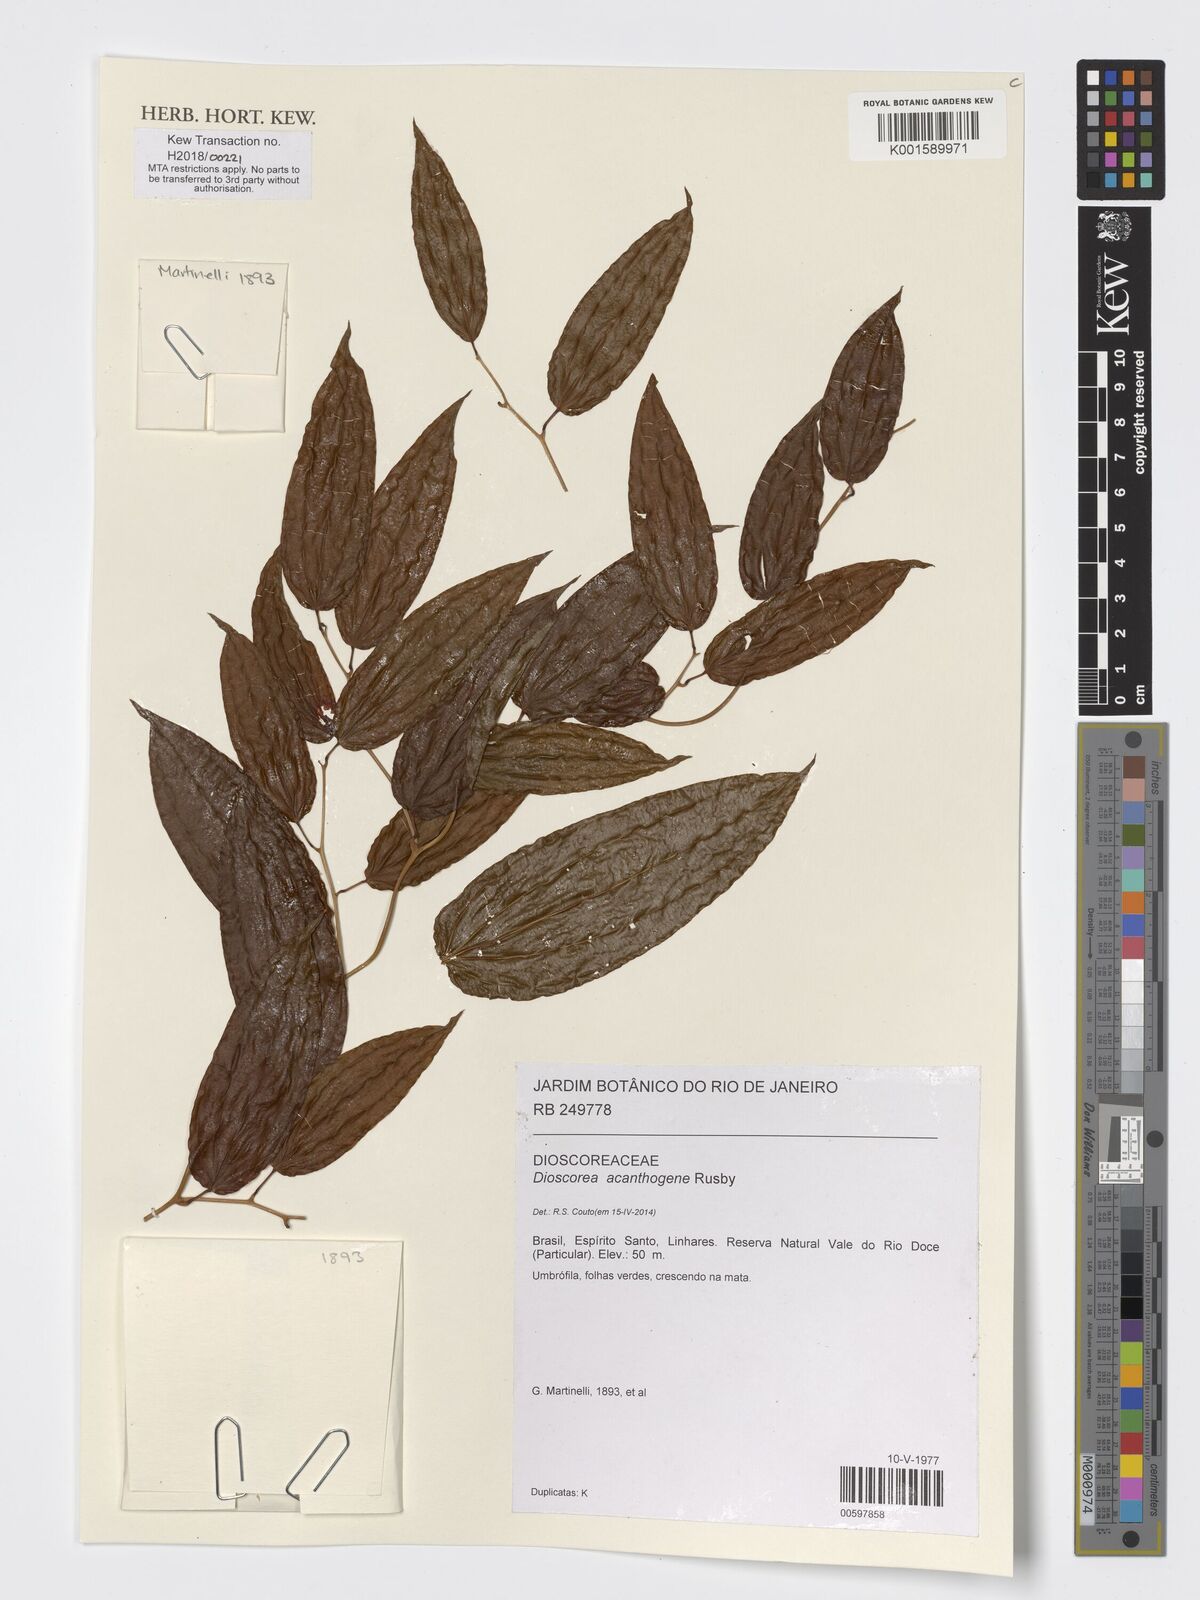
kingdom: Plantae
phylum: Tracheophyta
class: Liliopsida
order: Dioscoreales
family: Dioscoreaceae
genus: Dioscorea
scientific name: Dioscorea acanthogene
